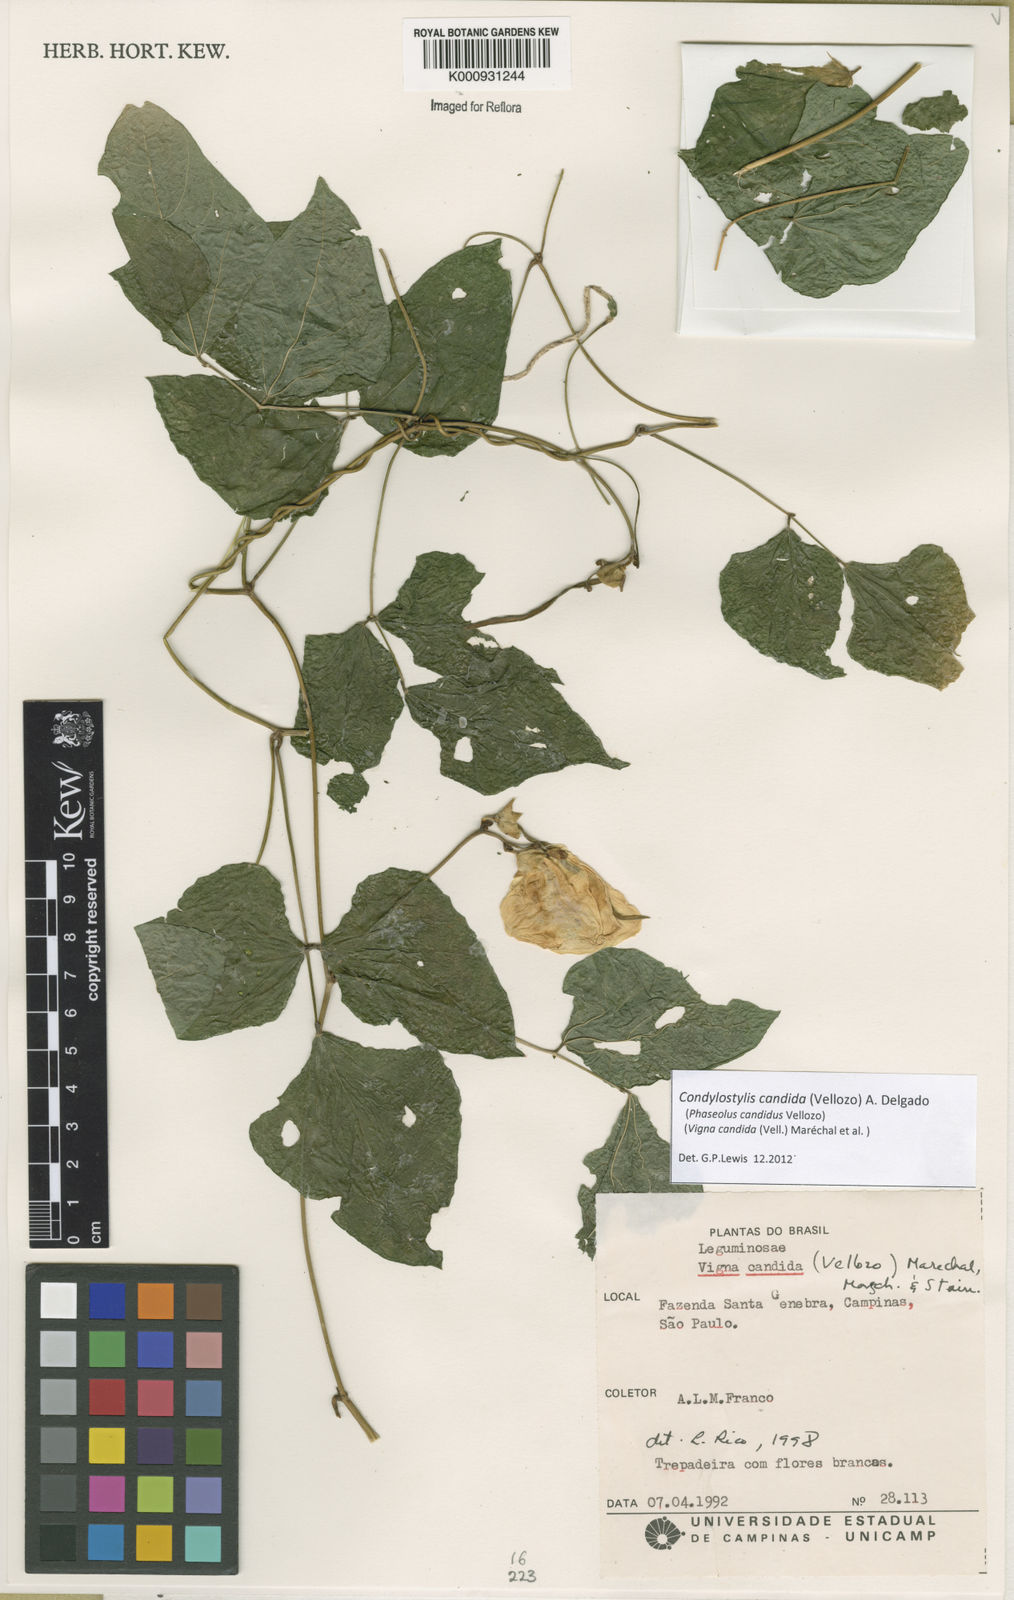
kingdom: Plantae
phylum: Tracheophyta
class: Magnoliopsida
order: Fabales
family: Fabaceae
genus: Condylostylis
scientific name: Condylostylis candida
